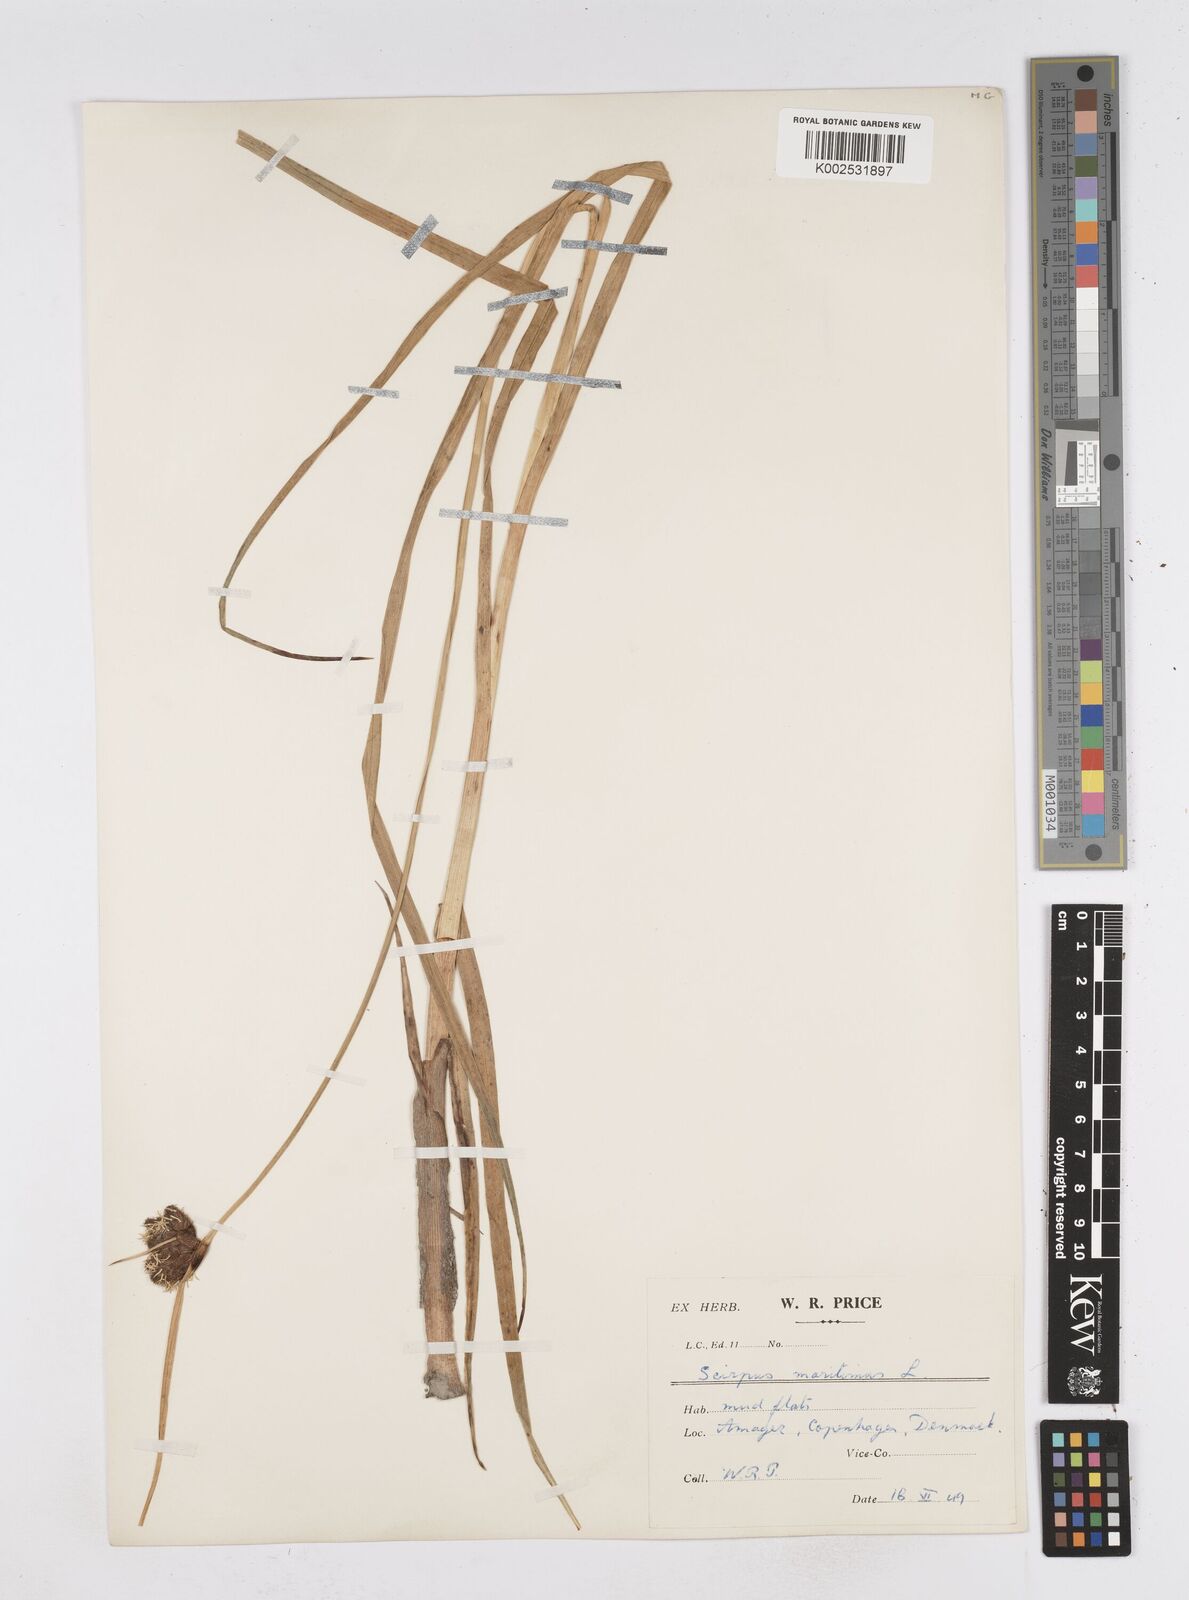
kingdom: Plantae
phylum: Tracheophyta
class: Liliopsida
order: Poales
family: Cyperaceae
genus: Bolboschoenus
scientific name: Bolboschoenus maritimus
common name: Sea club-rush
